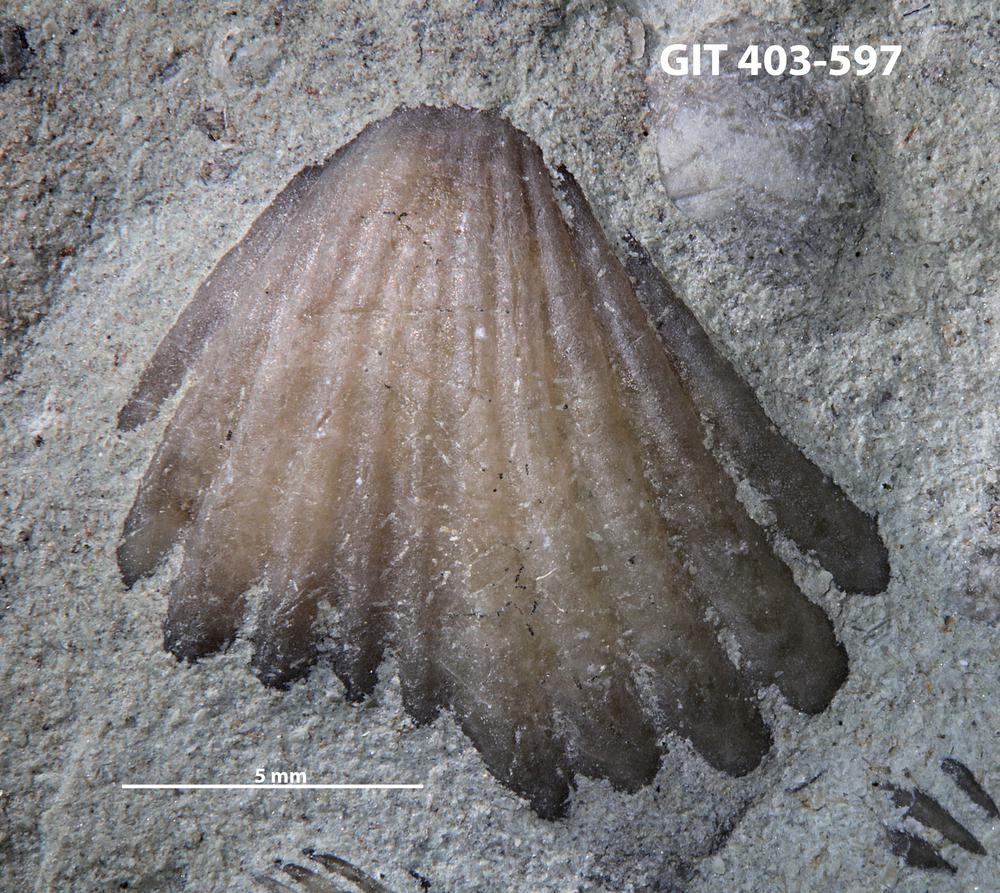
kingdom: Animalia
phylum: Brachiopoda
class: Rhynchonellata
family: Rhynchospirinidae
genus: Homoeospira
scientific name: Homoeospira Terebratula baylei
